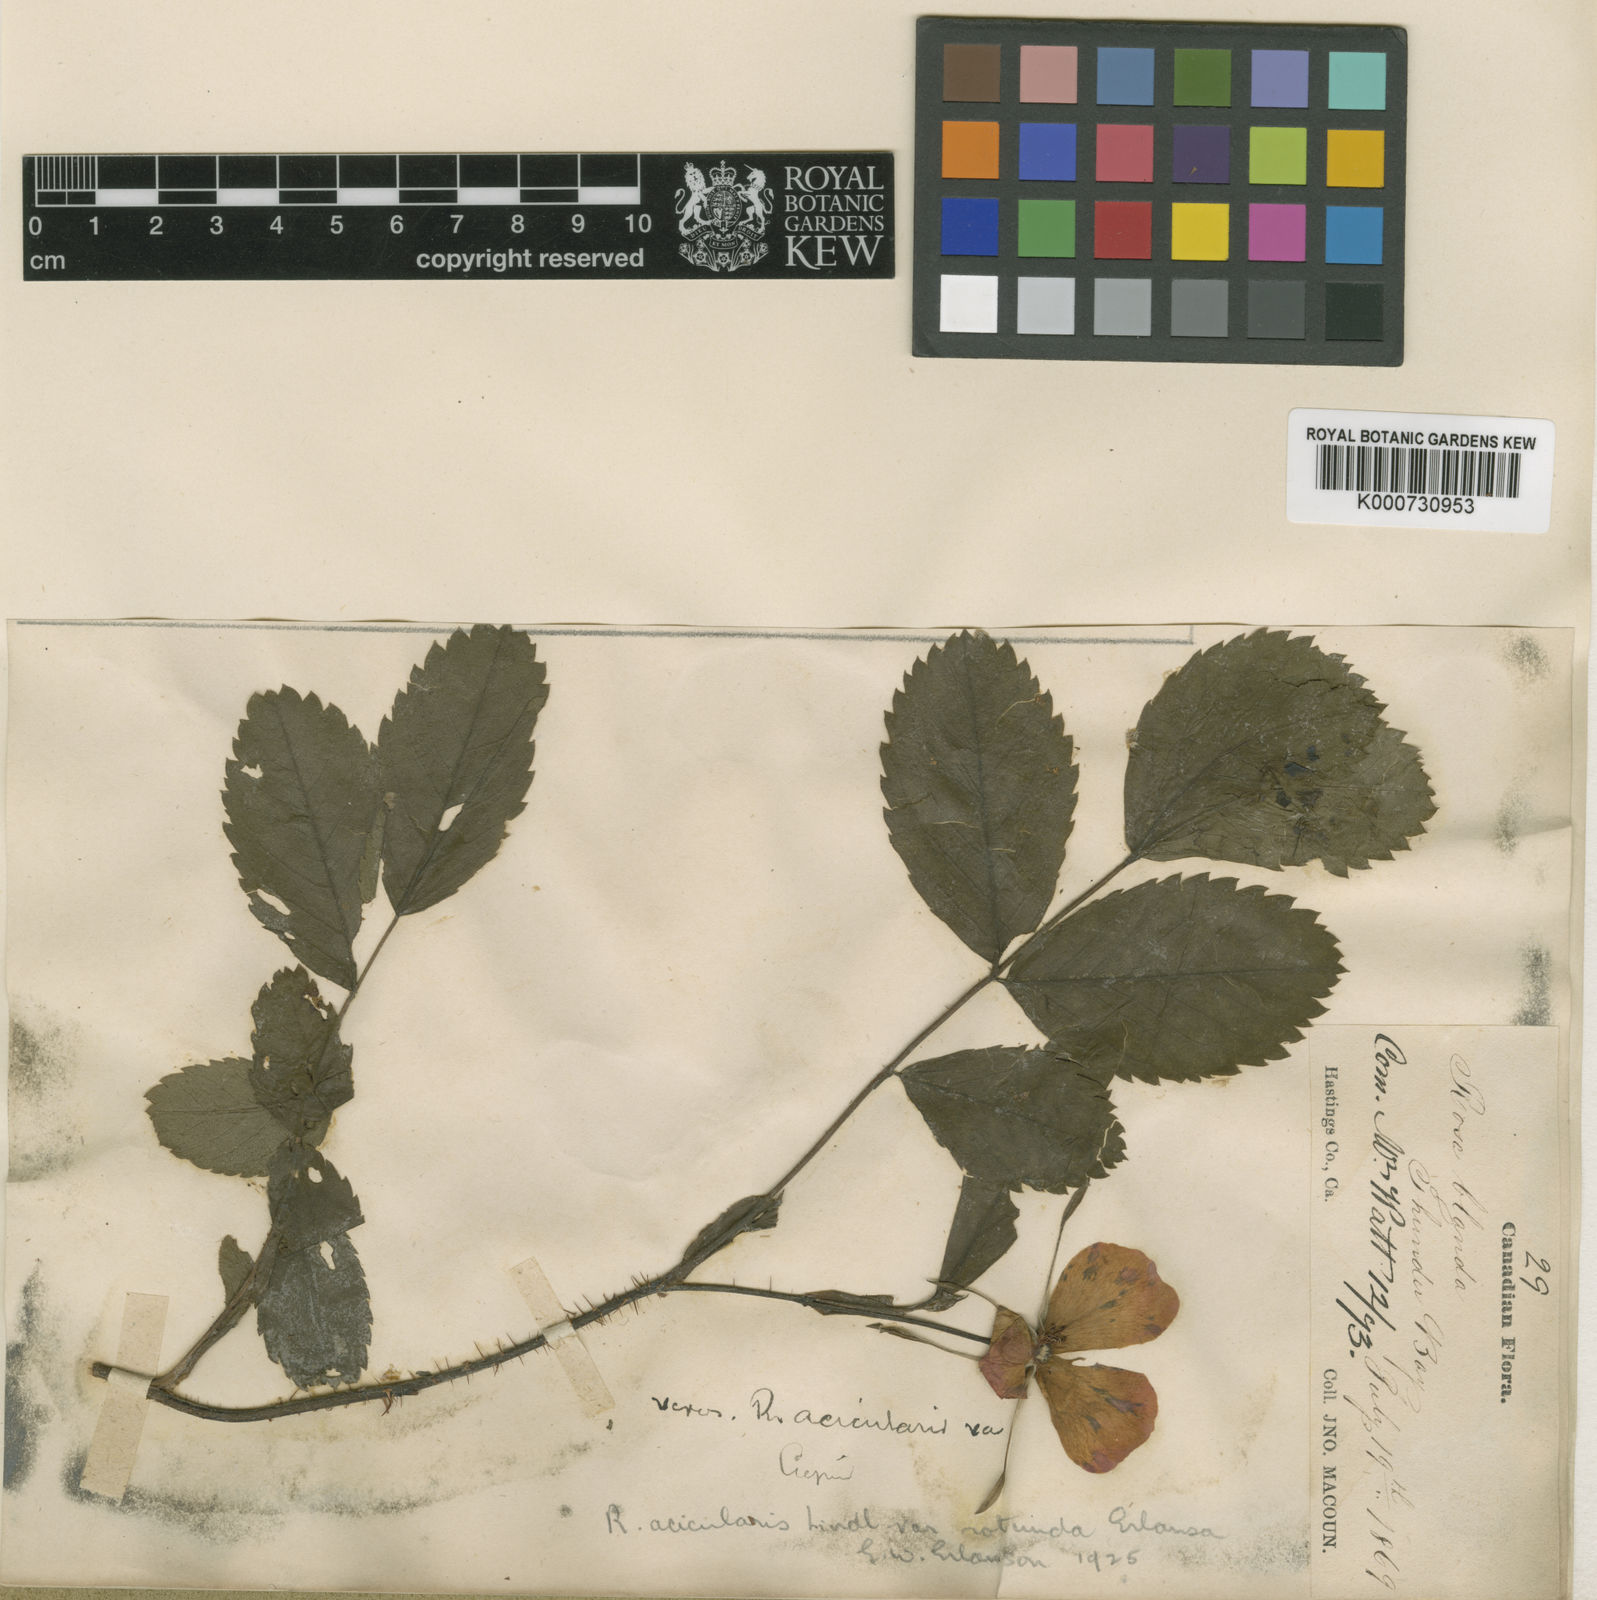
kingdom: Plantae
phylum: Tracheophyta
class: Magnoliopsida
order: Rosales
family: Rosaceae
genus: Rosa
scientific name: Rosa acicularis
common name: Prickly rose
